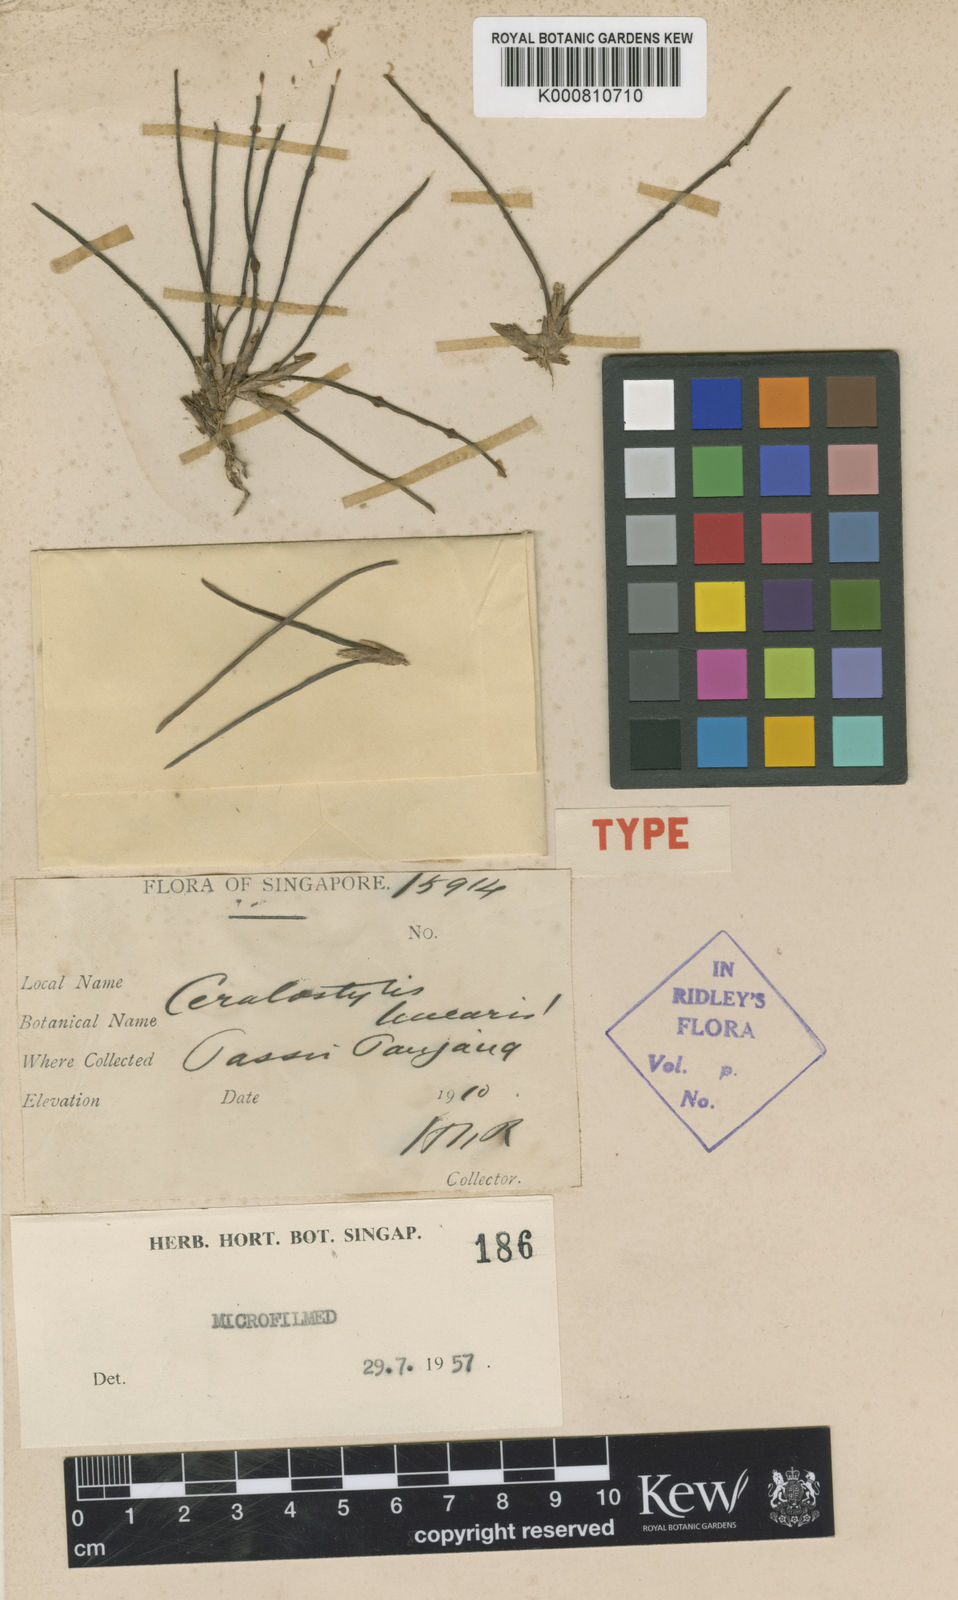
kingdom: Plantae
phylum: Tracheophyta
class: Liliopsida
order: Asparagales
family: Orchidaceae
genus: Ceratostylis
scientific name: Ceratostylis javanica
